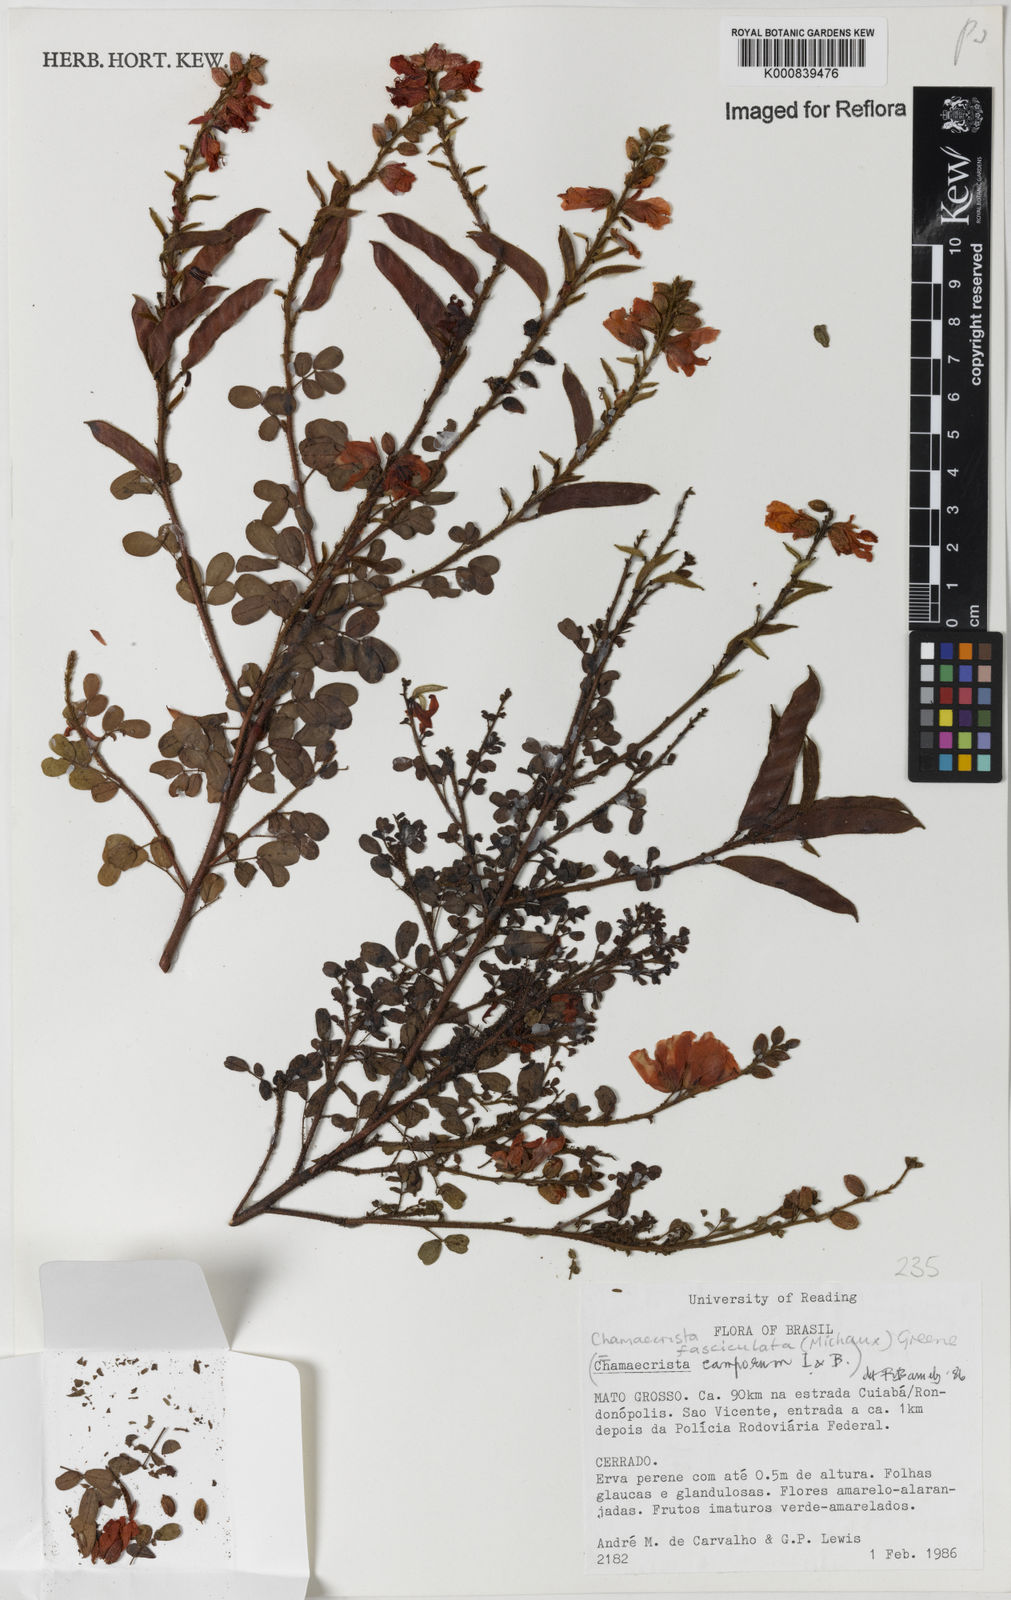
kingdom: Plantae
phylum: Tracheophyta
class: Magnoliopsida
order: Fabales
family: Fabaceae
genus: Chamaecrista
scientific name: Chamaecrista fasciculata
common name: Golden cassia
